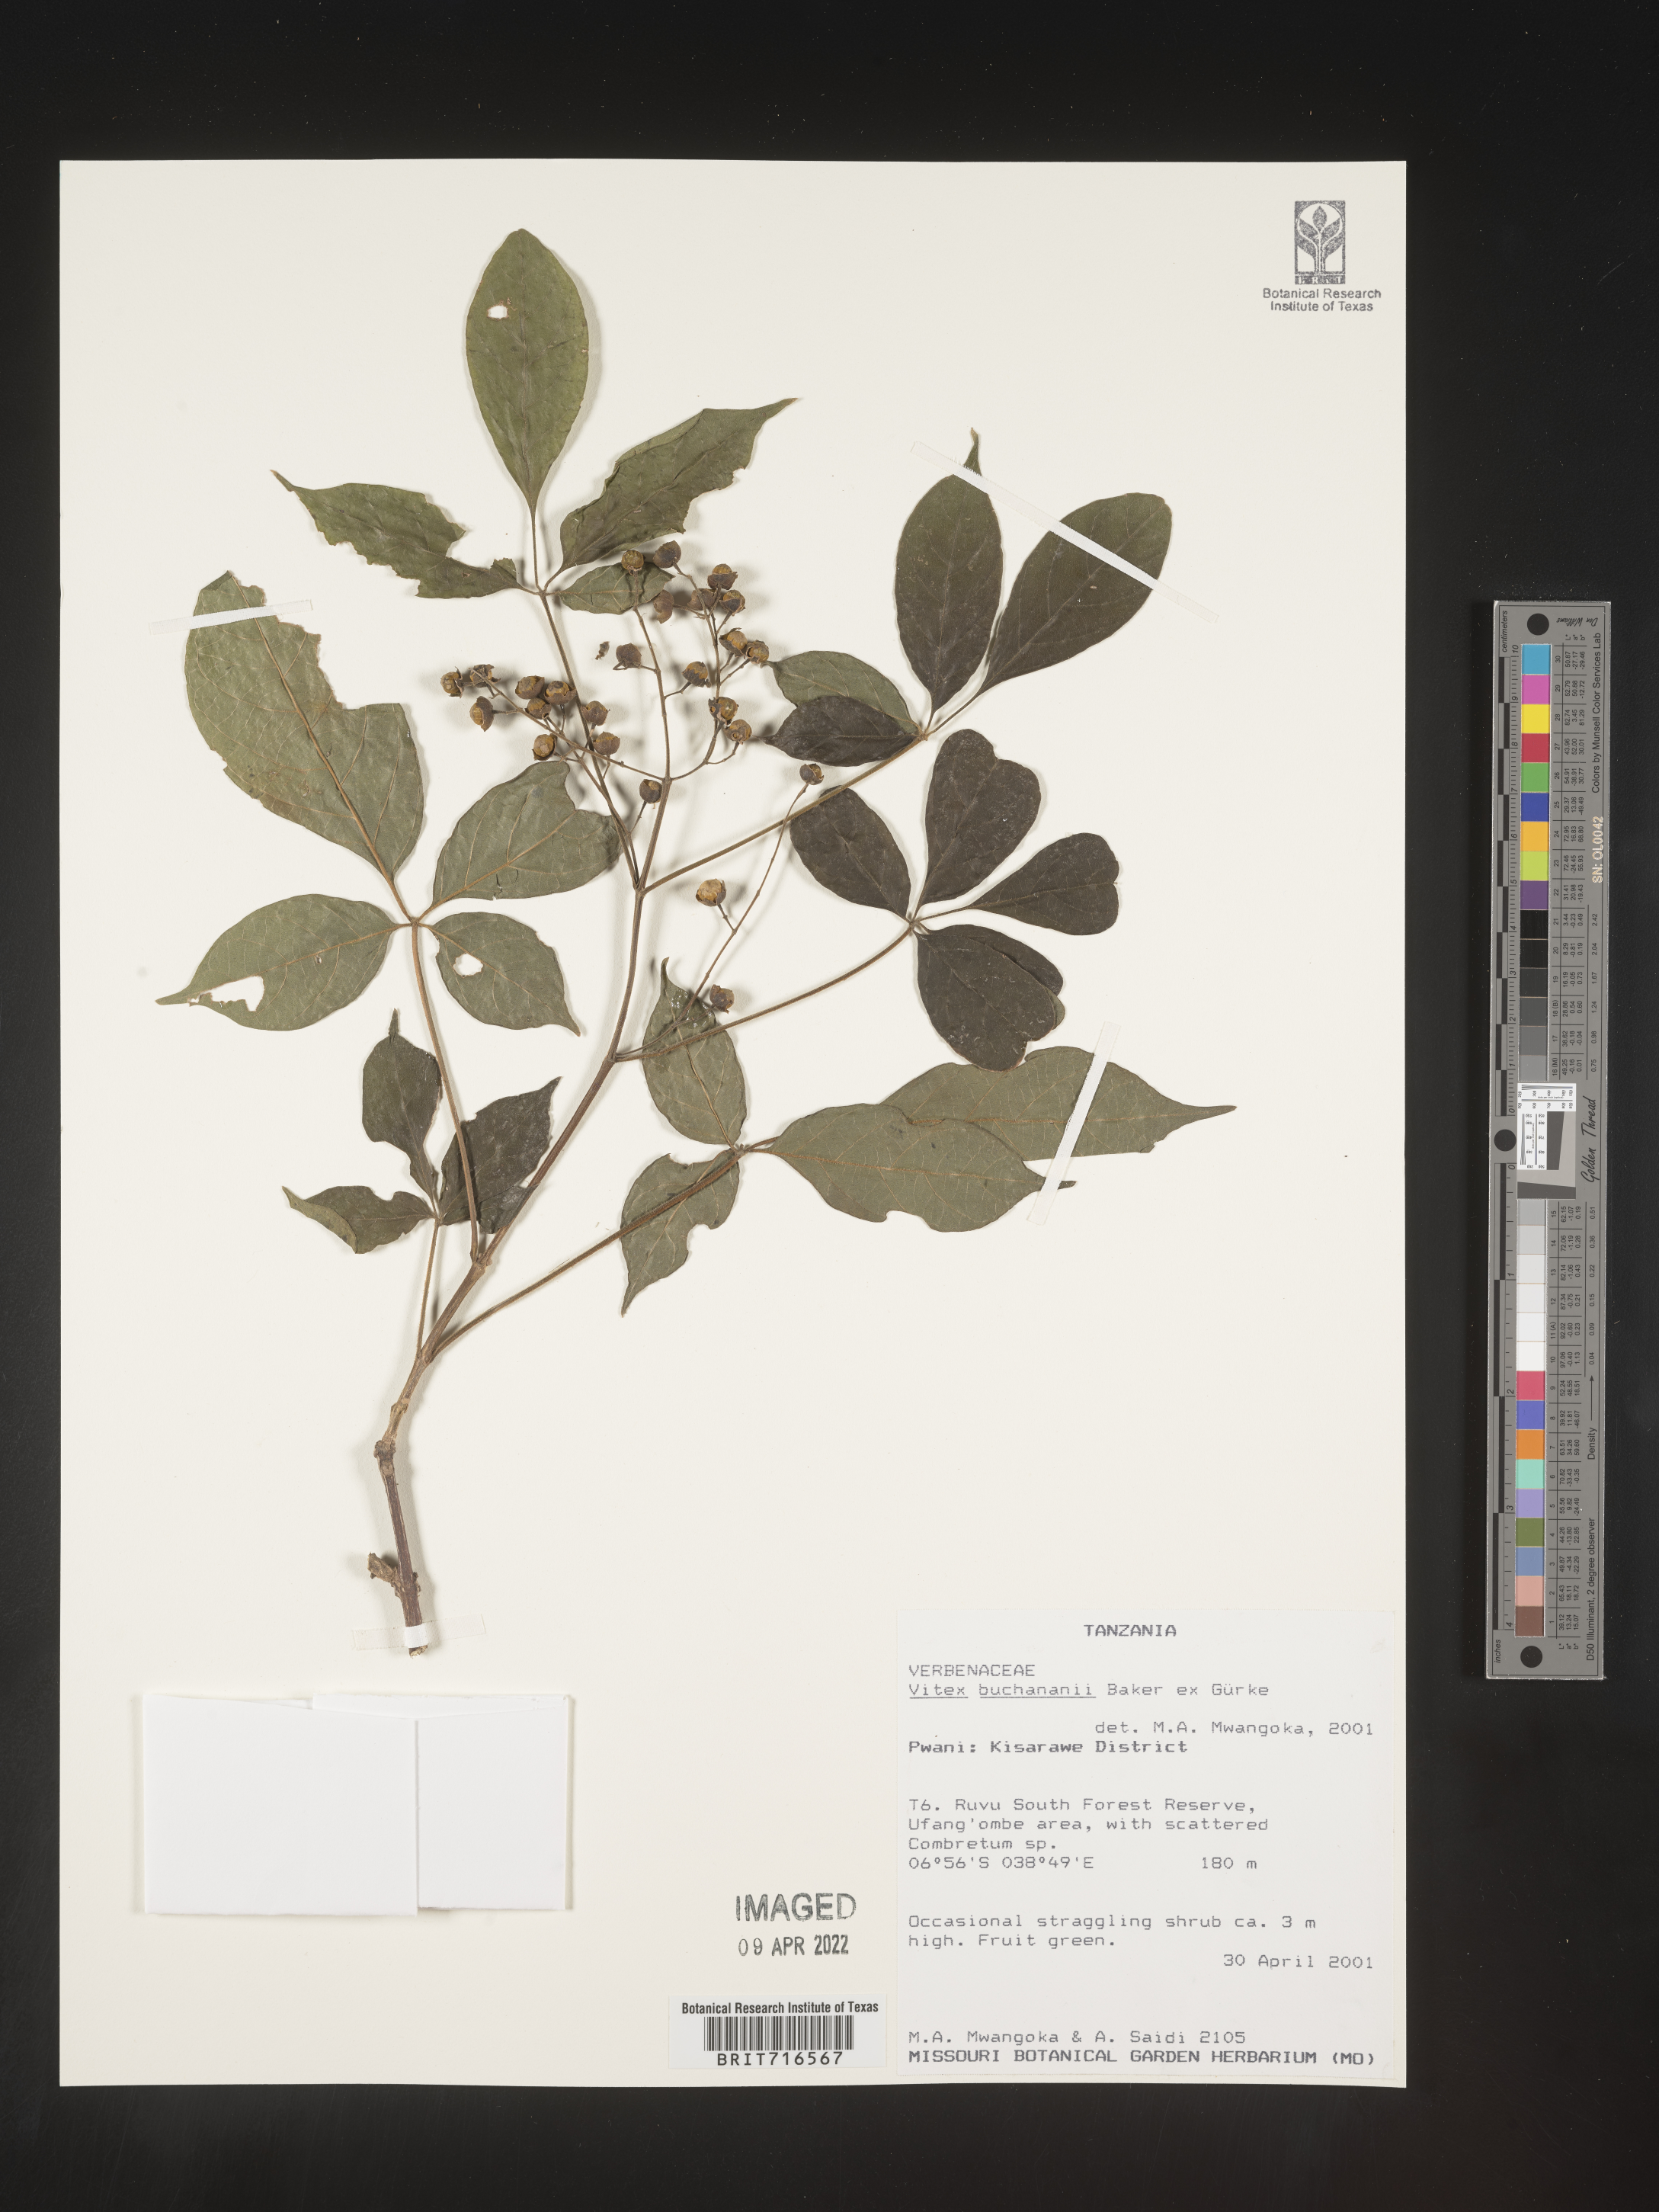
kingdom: Plantae
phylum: Tracheophyta
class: Magnoliopsida
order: Lamiales
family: Lamiaceae
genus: Vitex
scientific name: Vitex
